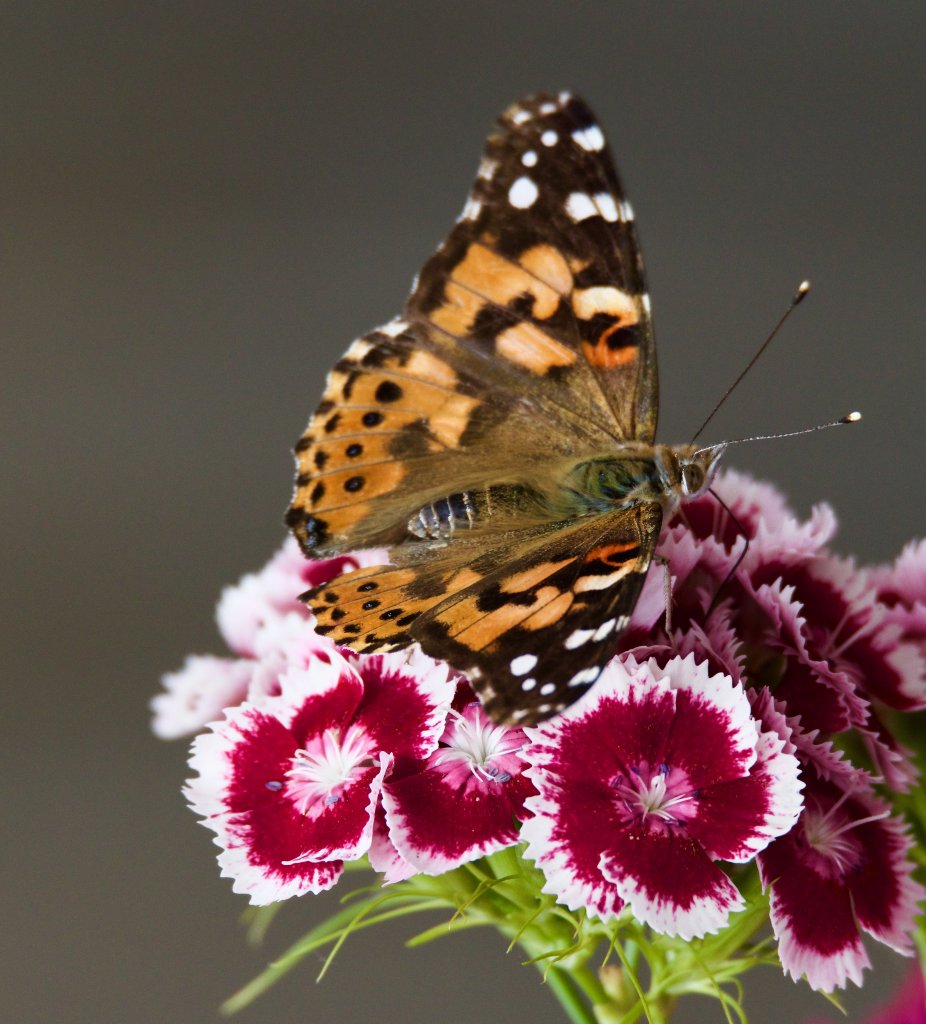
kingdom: Animalia
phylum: Arthropoda
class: Insecta
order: Lepidoptera
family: Nymphalidae
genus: Vanessa
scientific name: Vanessa cardui
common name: Painted Lady
